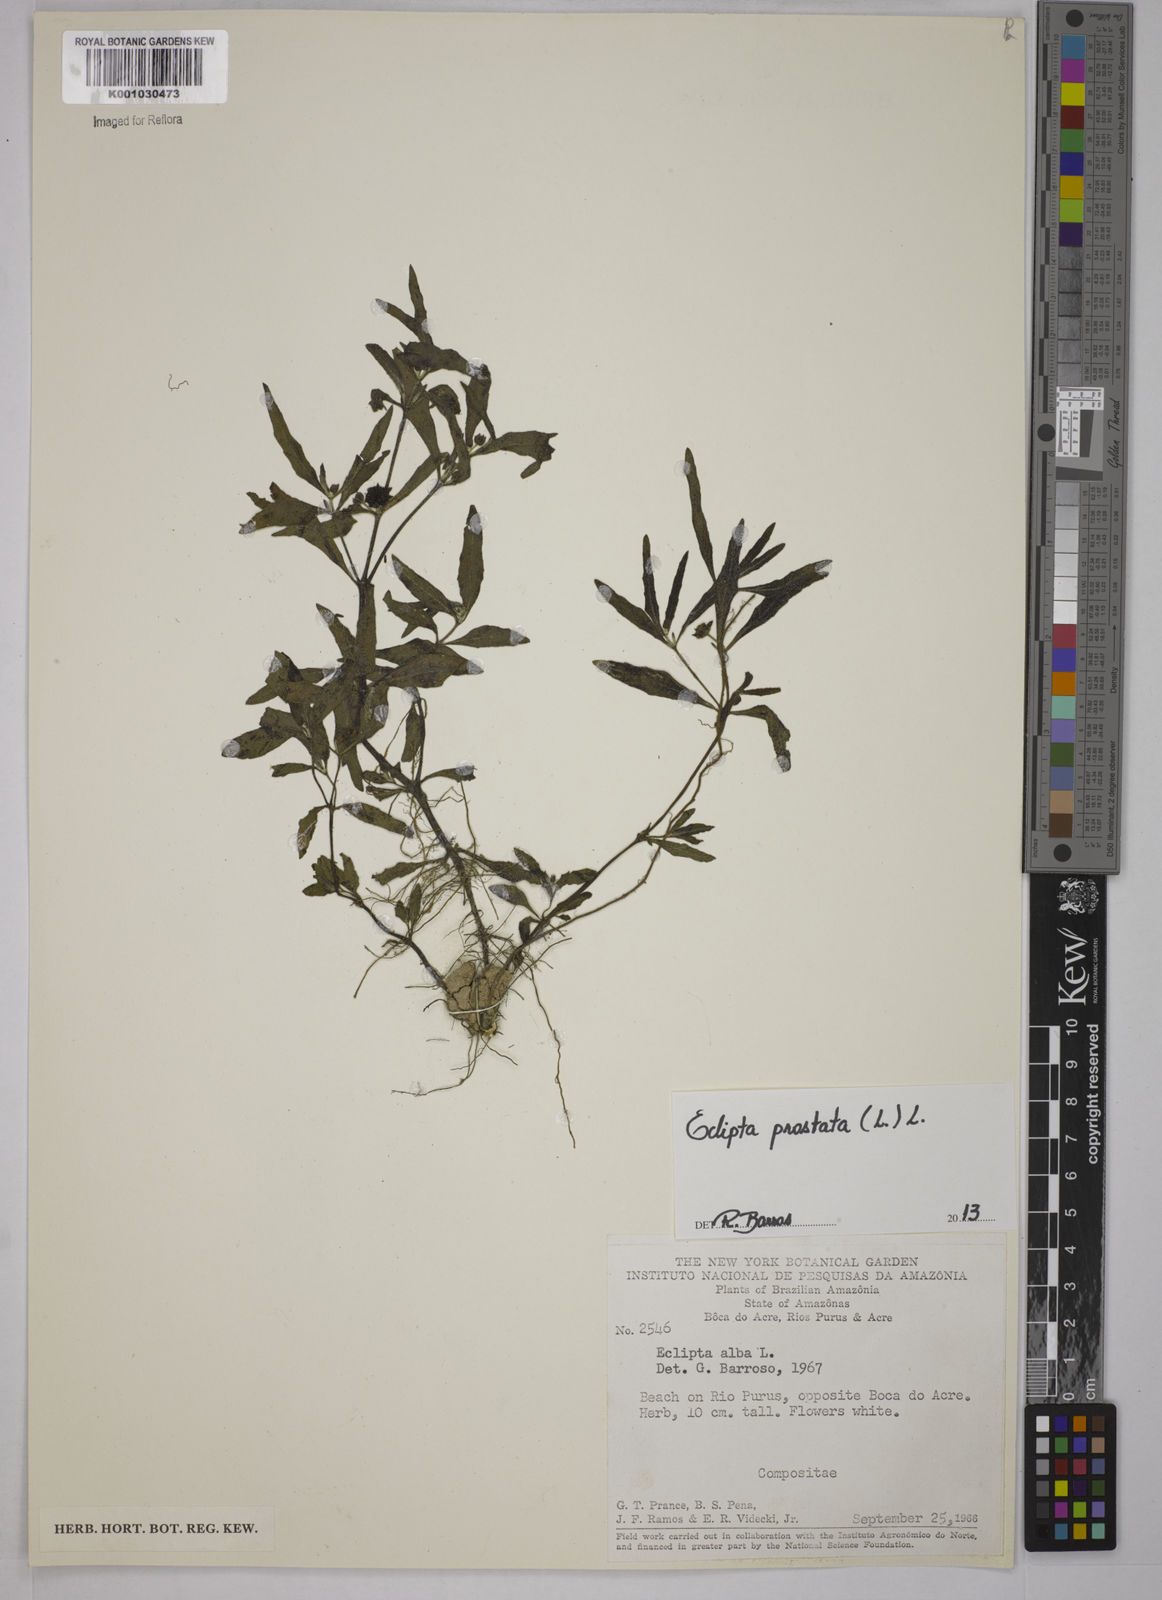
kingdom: Plantae
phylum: Tracheophyta
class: Magnoliopsida
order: Asterales
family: Asteraceae
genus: Eclipta
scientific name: Eclipta prostrata
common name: False daisy
